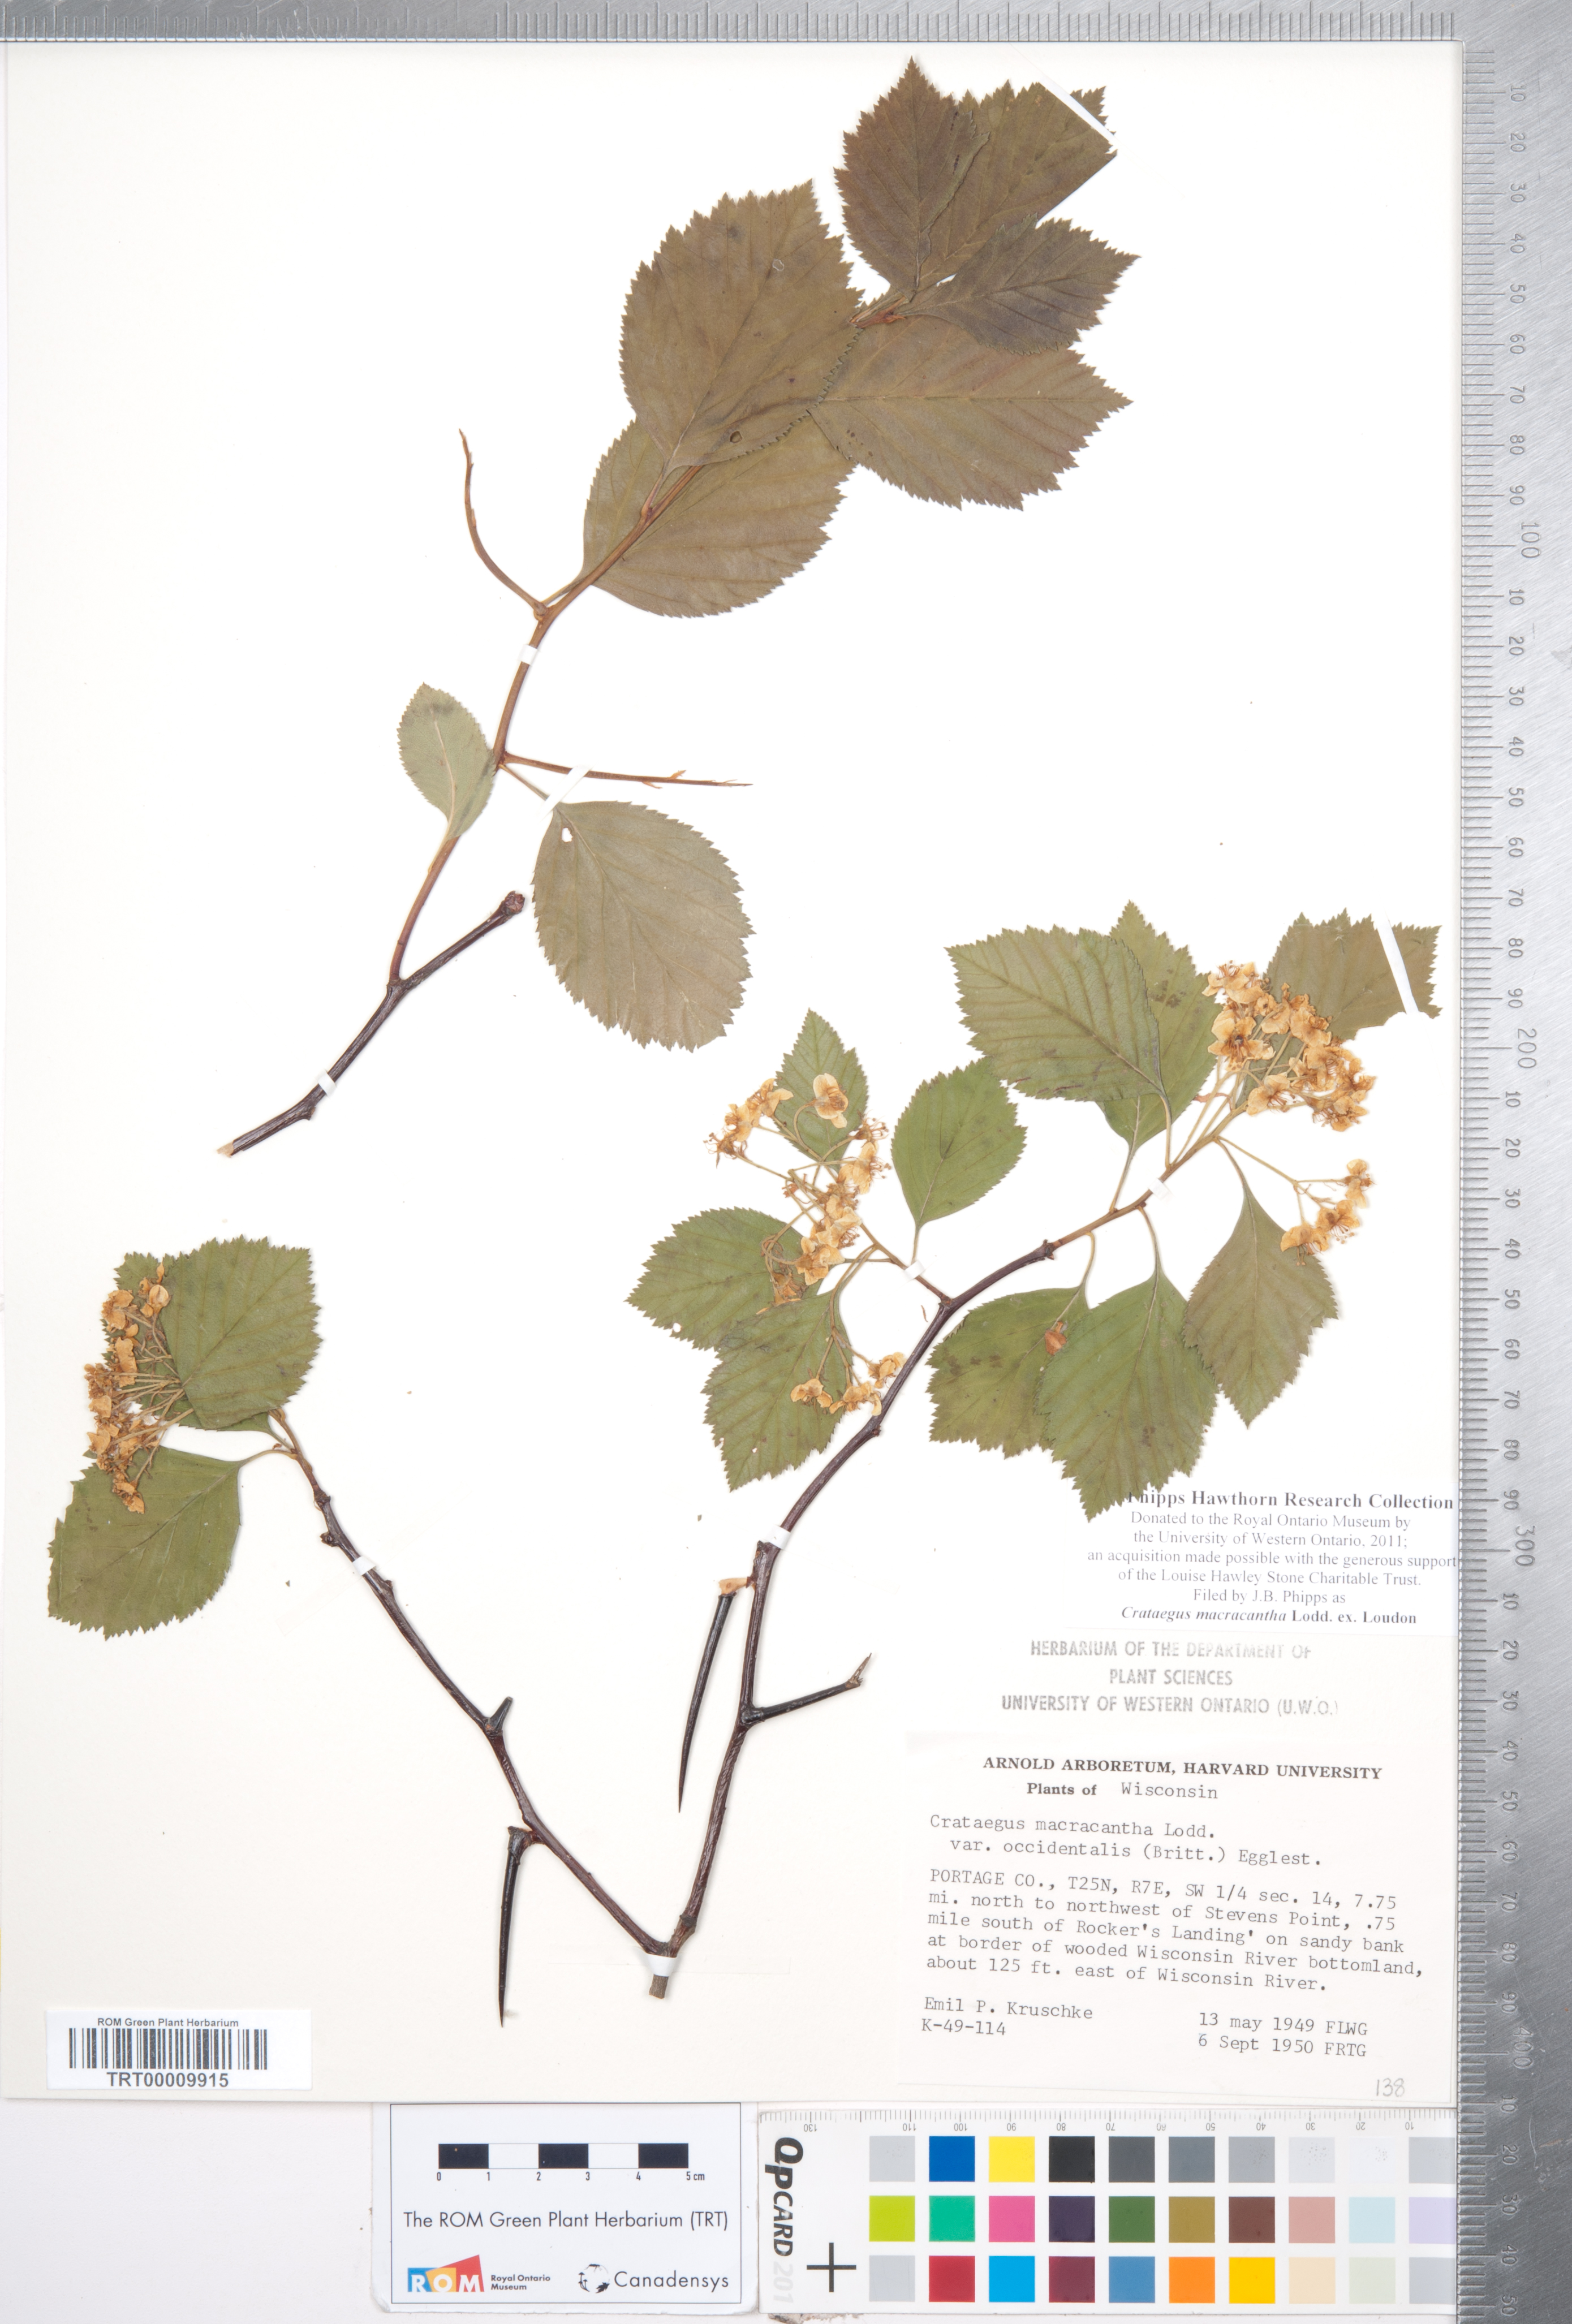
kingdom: Plantae
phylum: Tracheophyta
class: Magnoliopsida
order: Rosales
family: Rosaceae
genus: Crataegus
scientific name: Crataegus macracantha
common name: Large-thorn hawthorn
